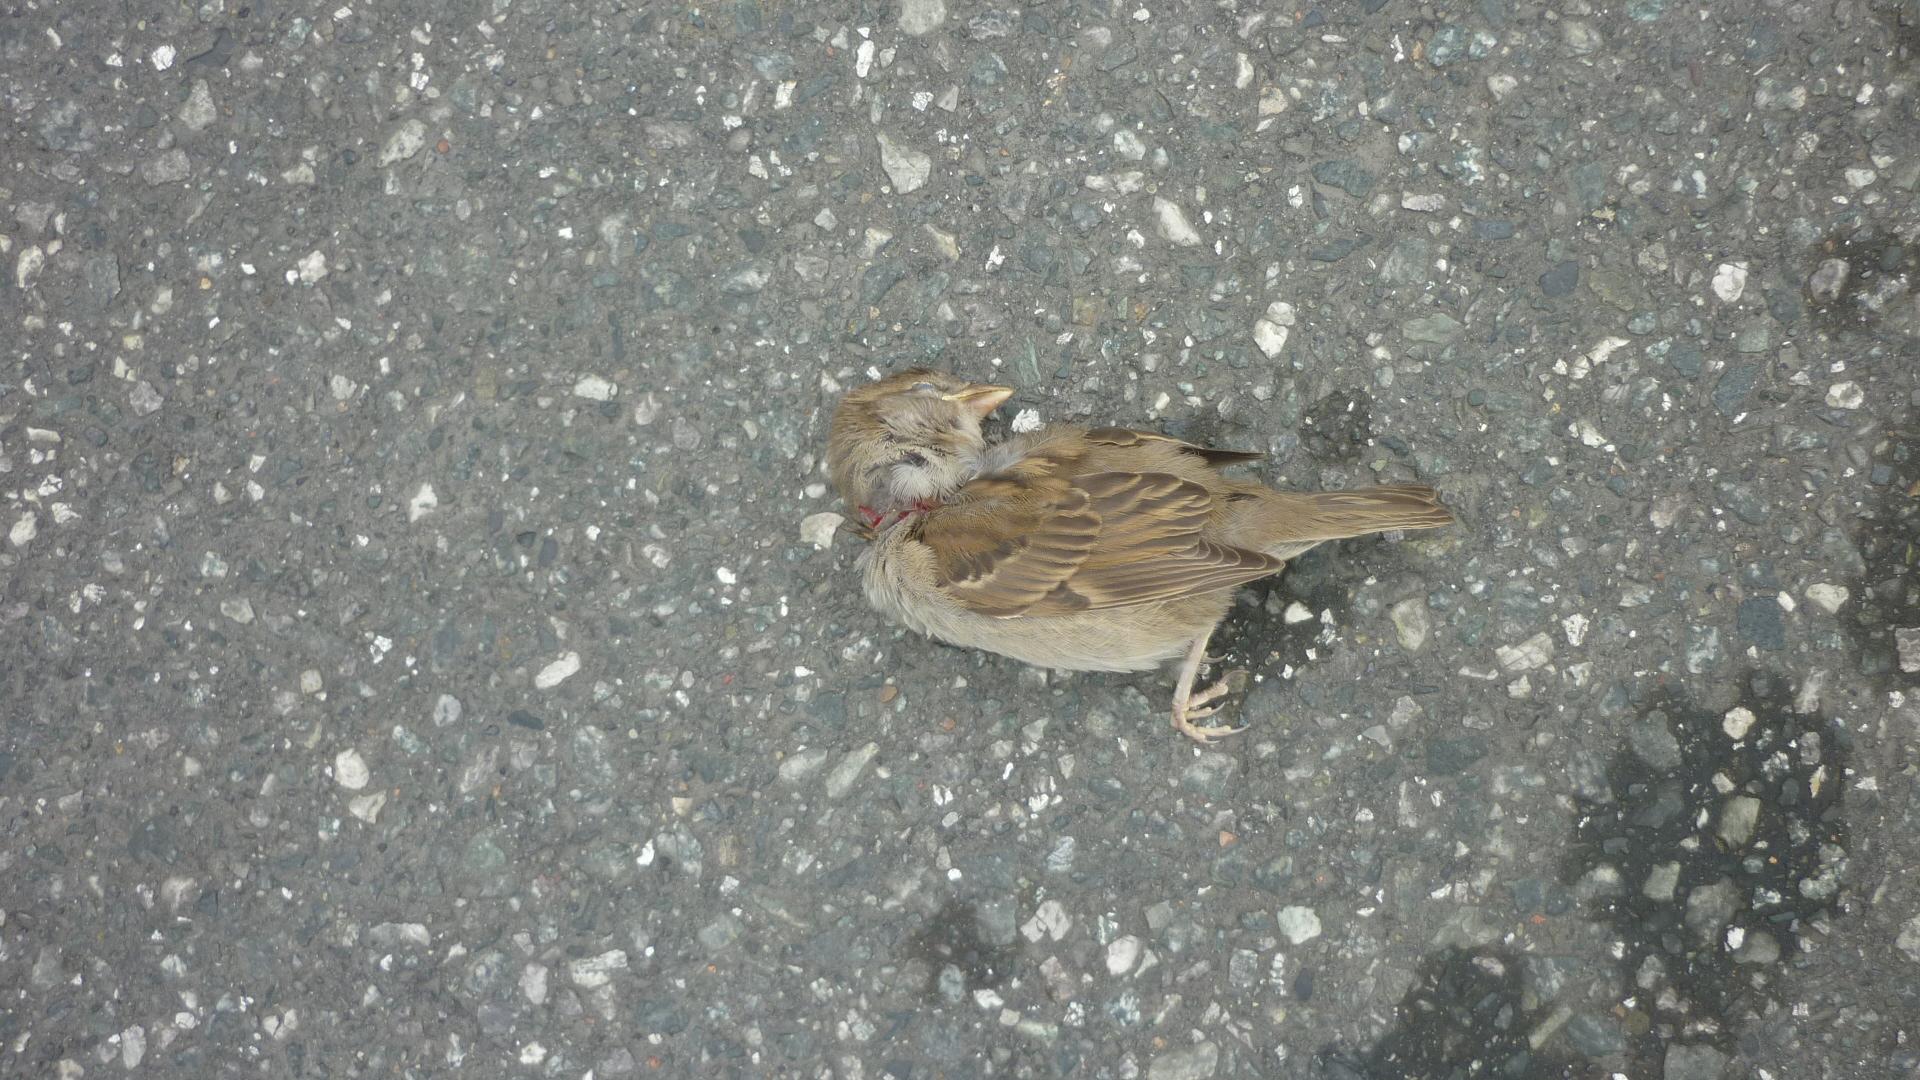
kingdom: Animalia
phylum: Chordata
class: Aves
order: Passeriformes
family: Passeridae
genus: Passer
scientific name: Passer domesticus
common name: House sparrow
